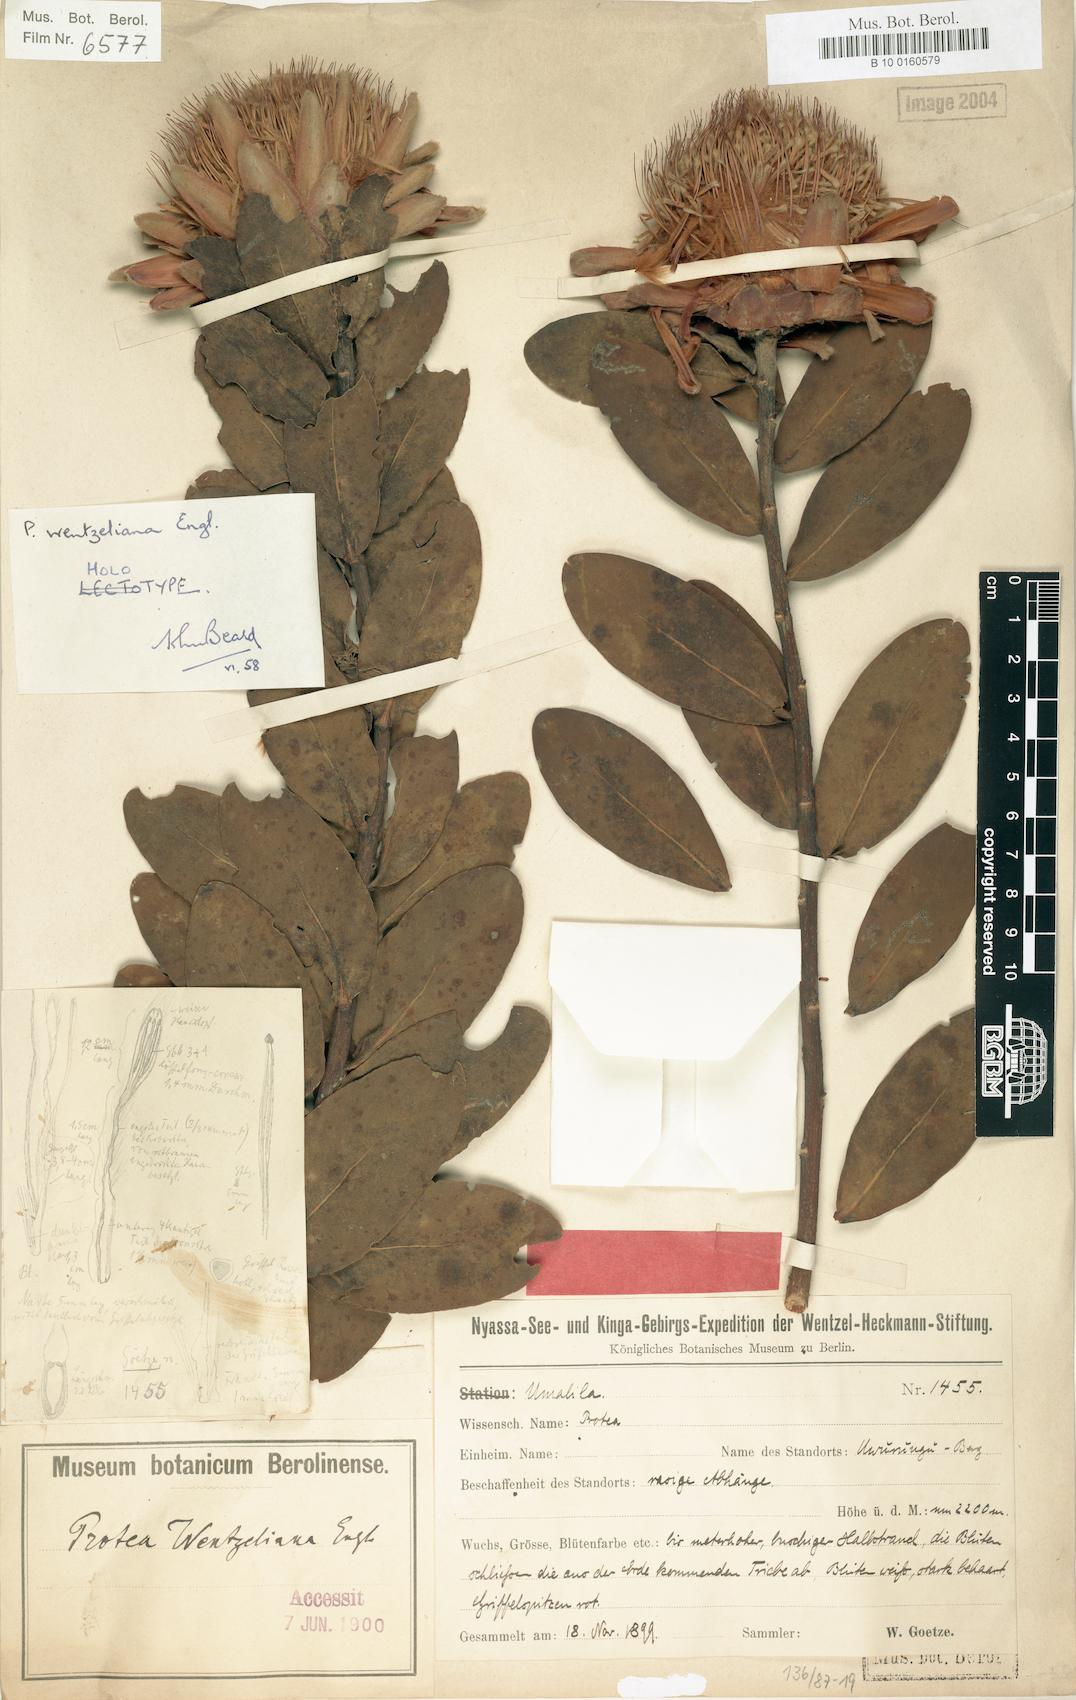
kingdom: Plantae
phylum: Tracheophyta
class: Magnoliopsida
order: Proteales
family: Proteaceae
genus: Protea
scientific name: Protea wentzeliana
